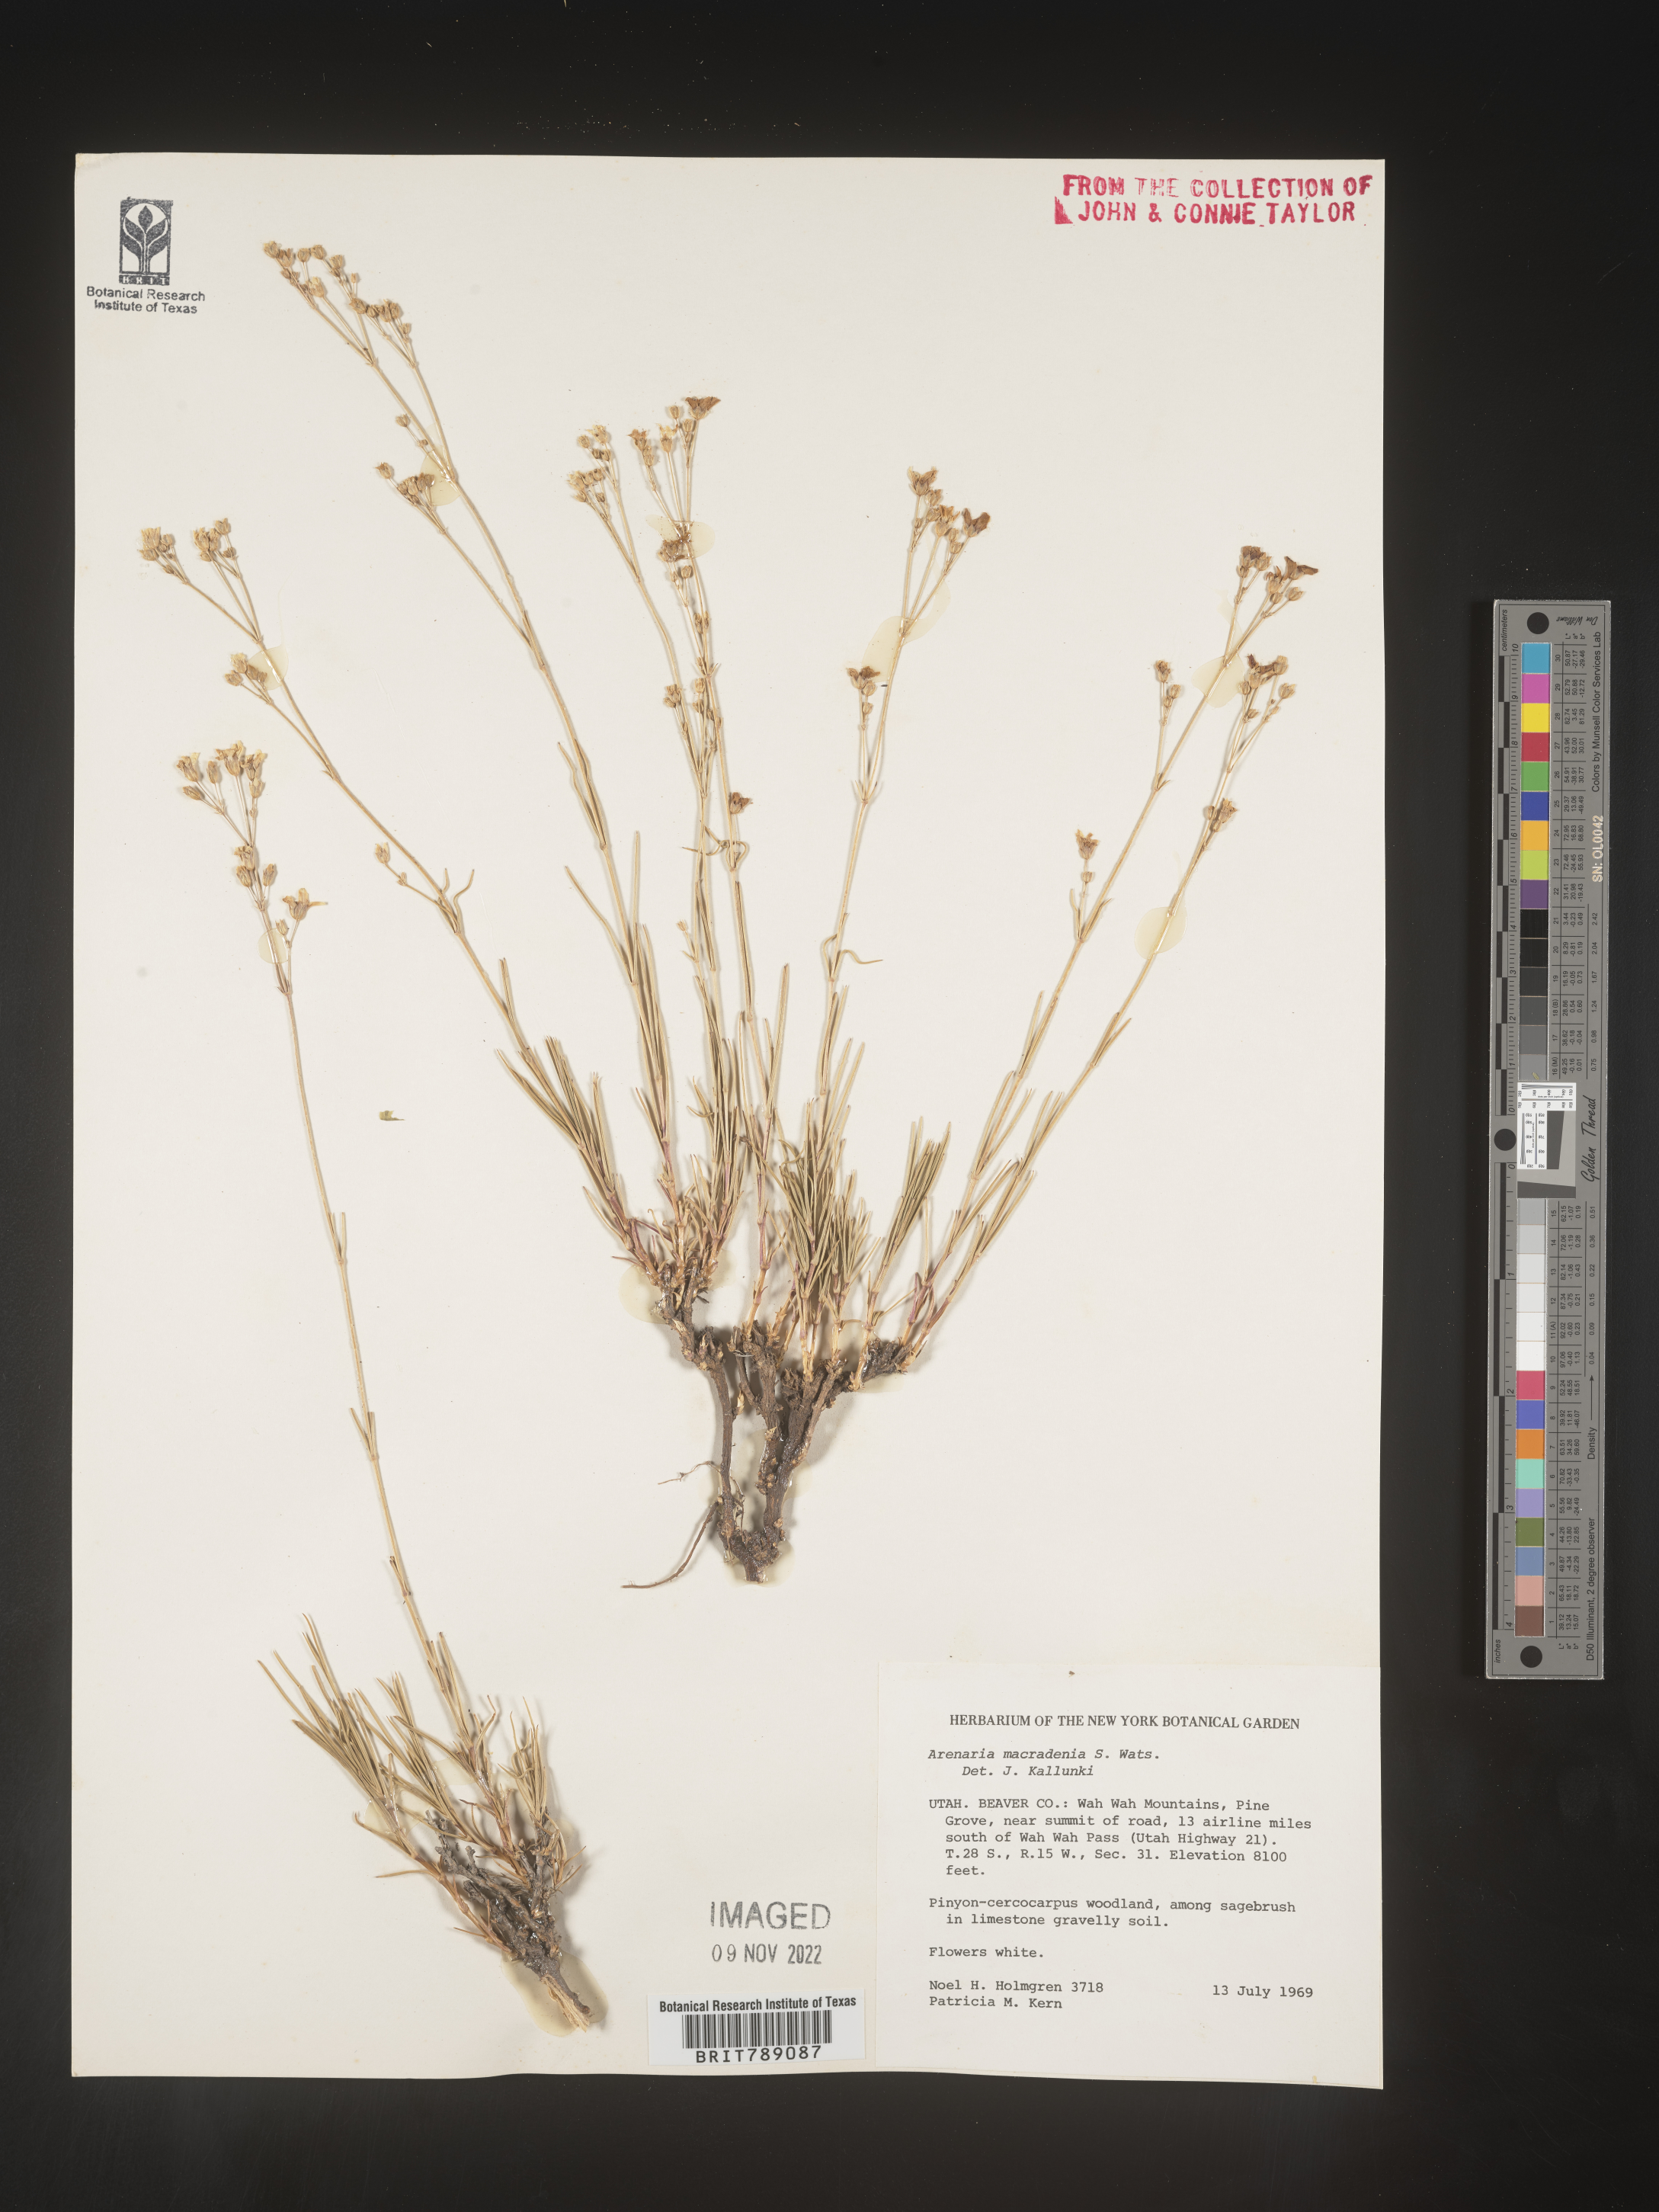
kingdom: Plantae
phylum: Tracheophyta
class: Magnoliopsida
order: Caryophyllales
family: Caryophyllaceae
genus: Arenaria
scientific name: Arenaria
